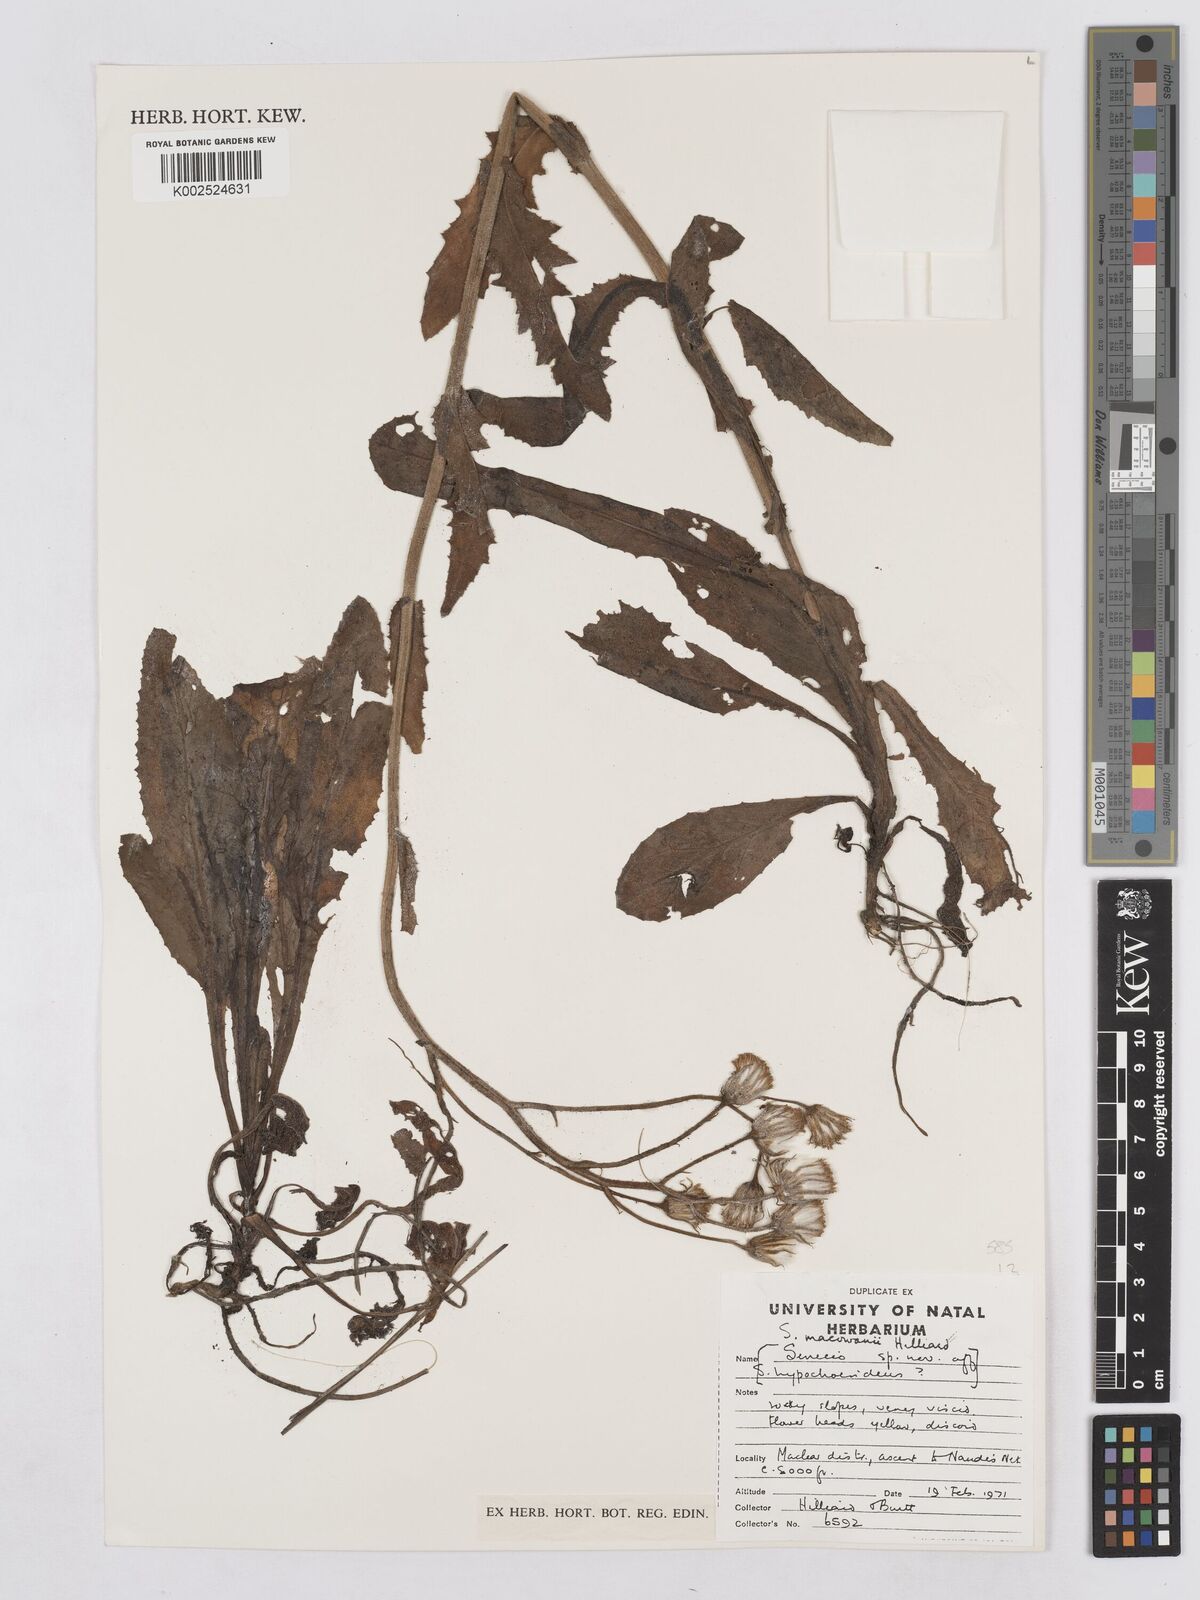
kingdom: Plantae
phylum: Tracheophyta
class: Magnoliopsida
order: Asterales
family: Asteraceae
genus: Senecio
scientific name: Senecio macowanii
